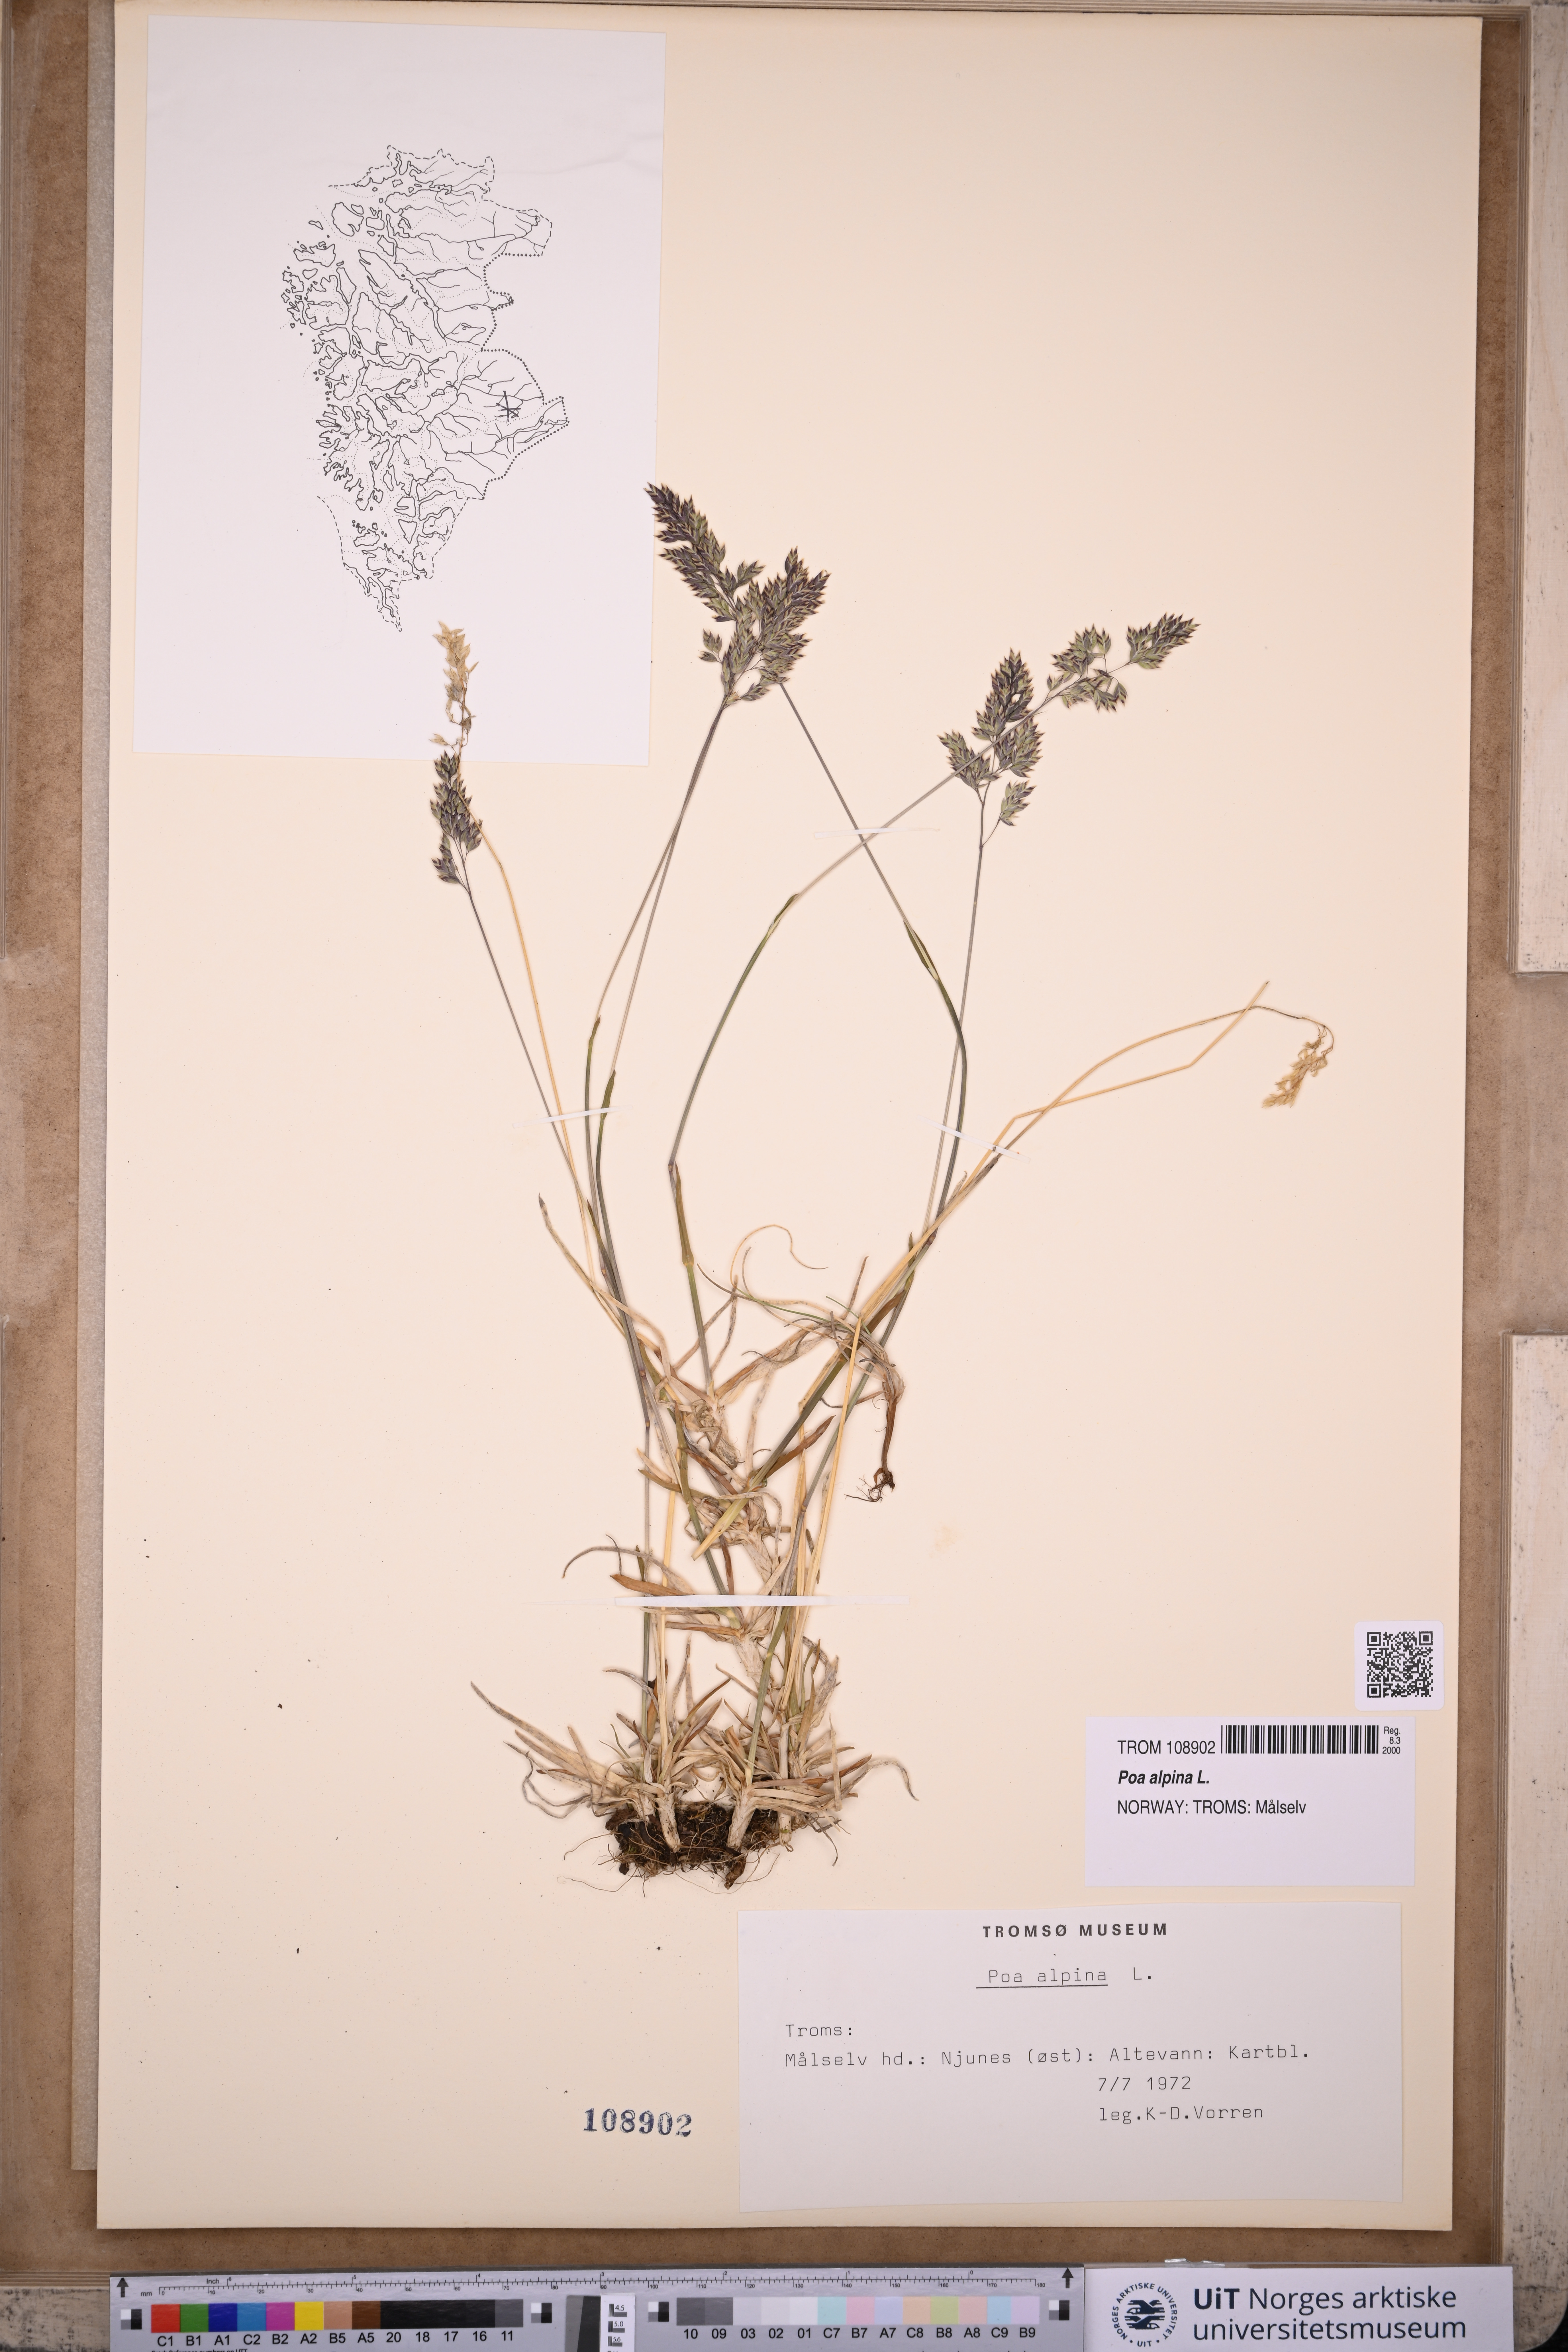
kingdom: Plantae
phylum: Tracheophyta
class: Liliopsida
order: Poales
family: Poaceae
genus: Poa
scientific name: Poa alpina
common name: Alpine bluegrass
